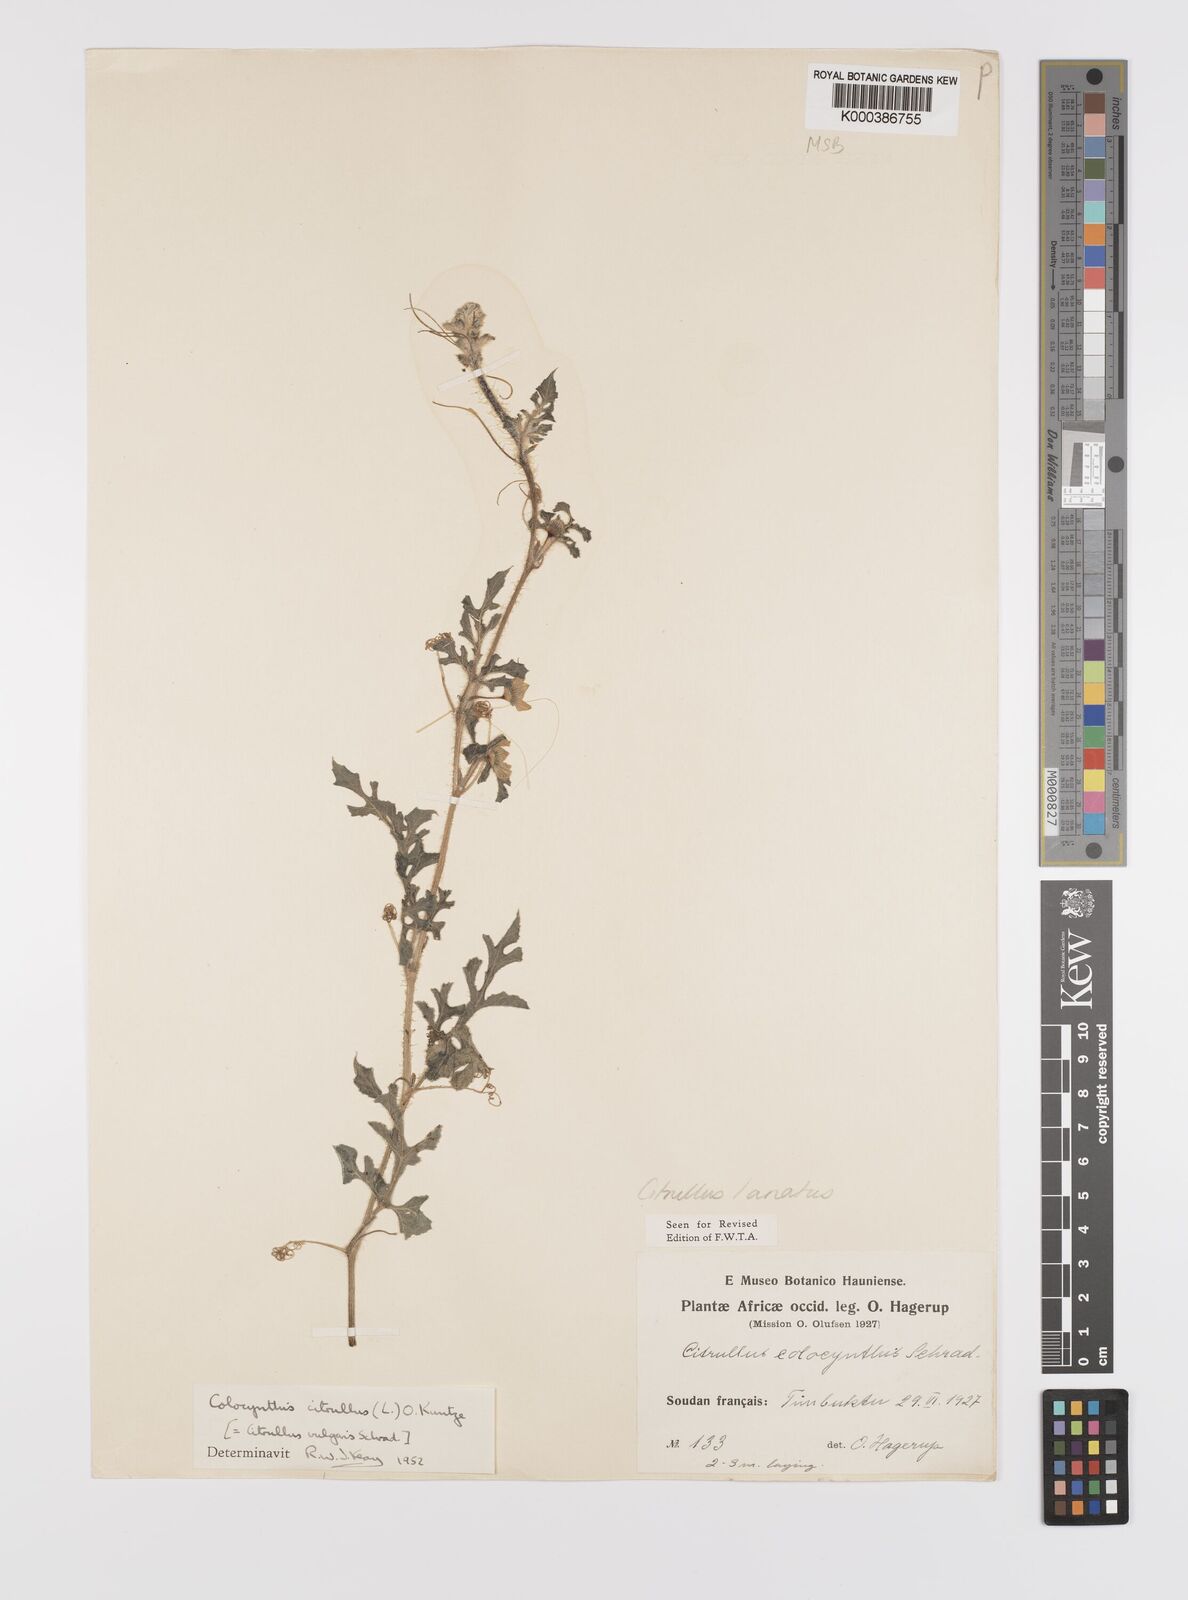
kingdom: Plantae
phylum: Tracheophyta
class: Magnoliopsida
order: Cucurbitales
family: Cucurbitaceae
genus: Citrullus
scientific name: Citrullus lanatus
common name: Watermelon
